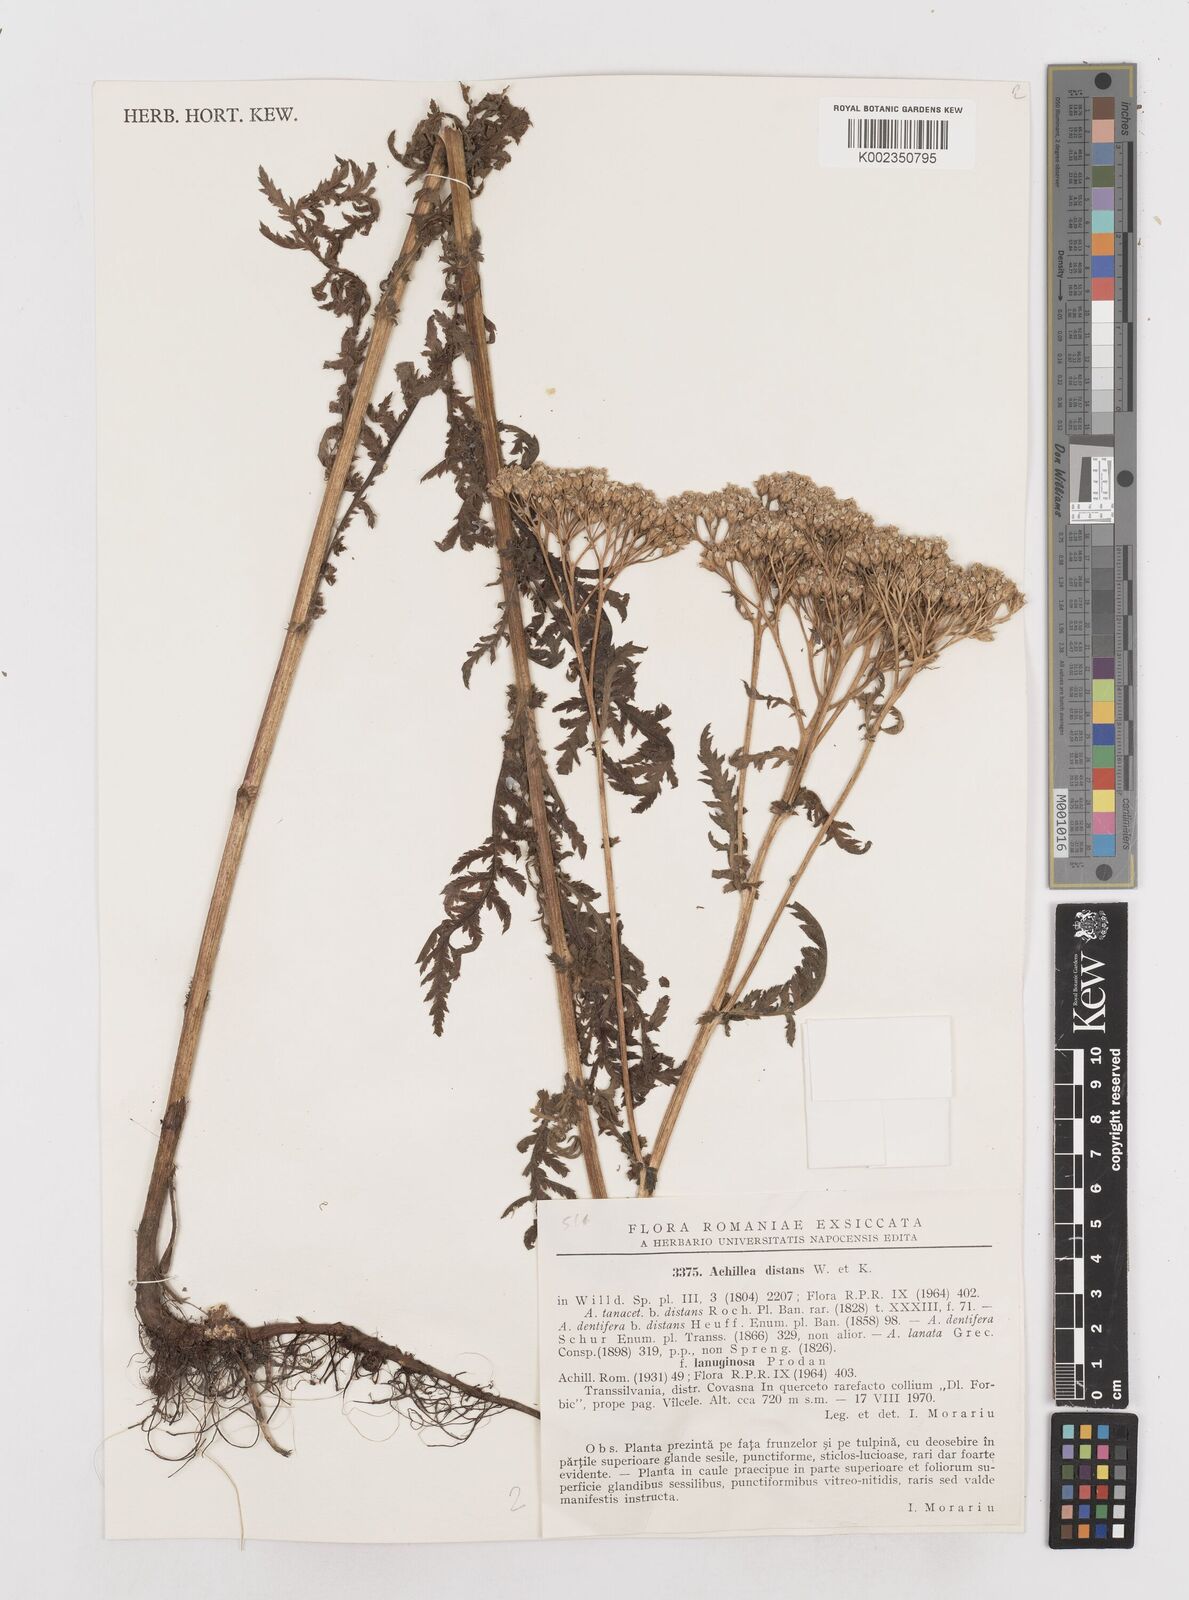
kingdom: Plantae
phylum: Tracheophyta
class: Magnoliopsida
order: Asterales
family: Asteraceae
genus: Achillea
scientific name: Achillea distans
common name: Tall yarrow
